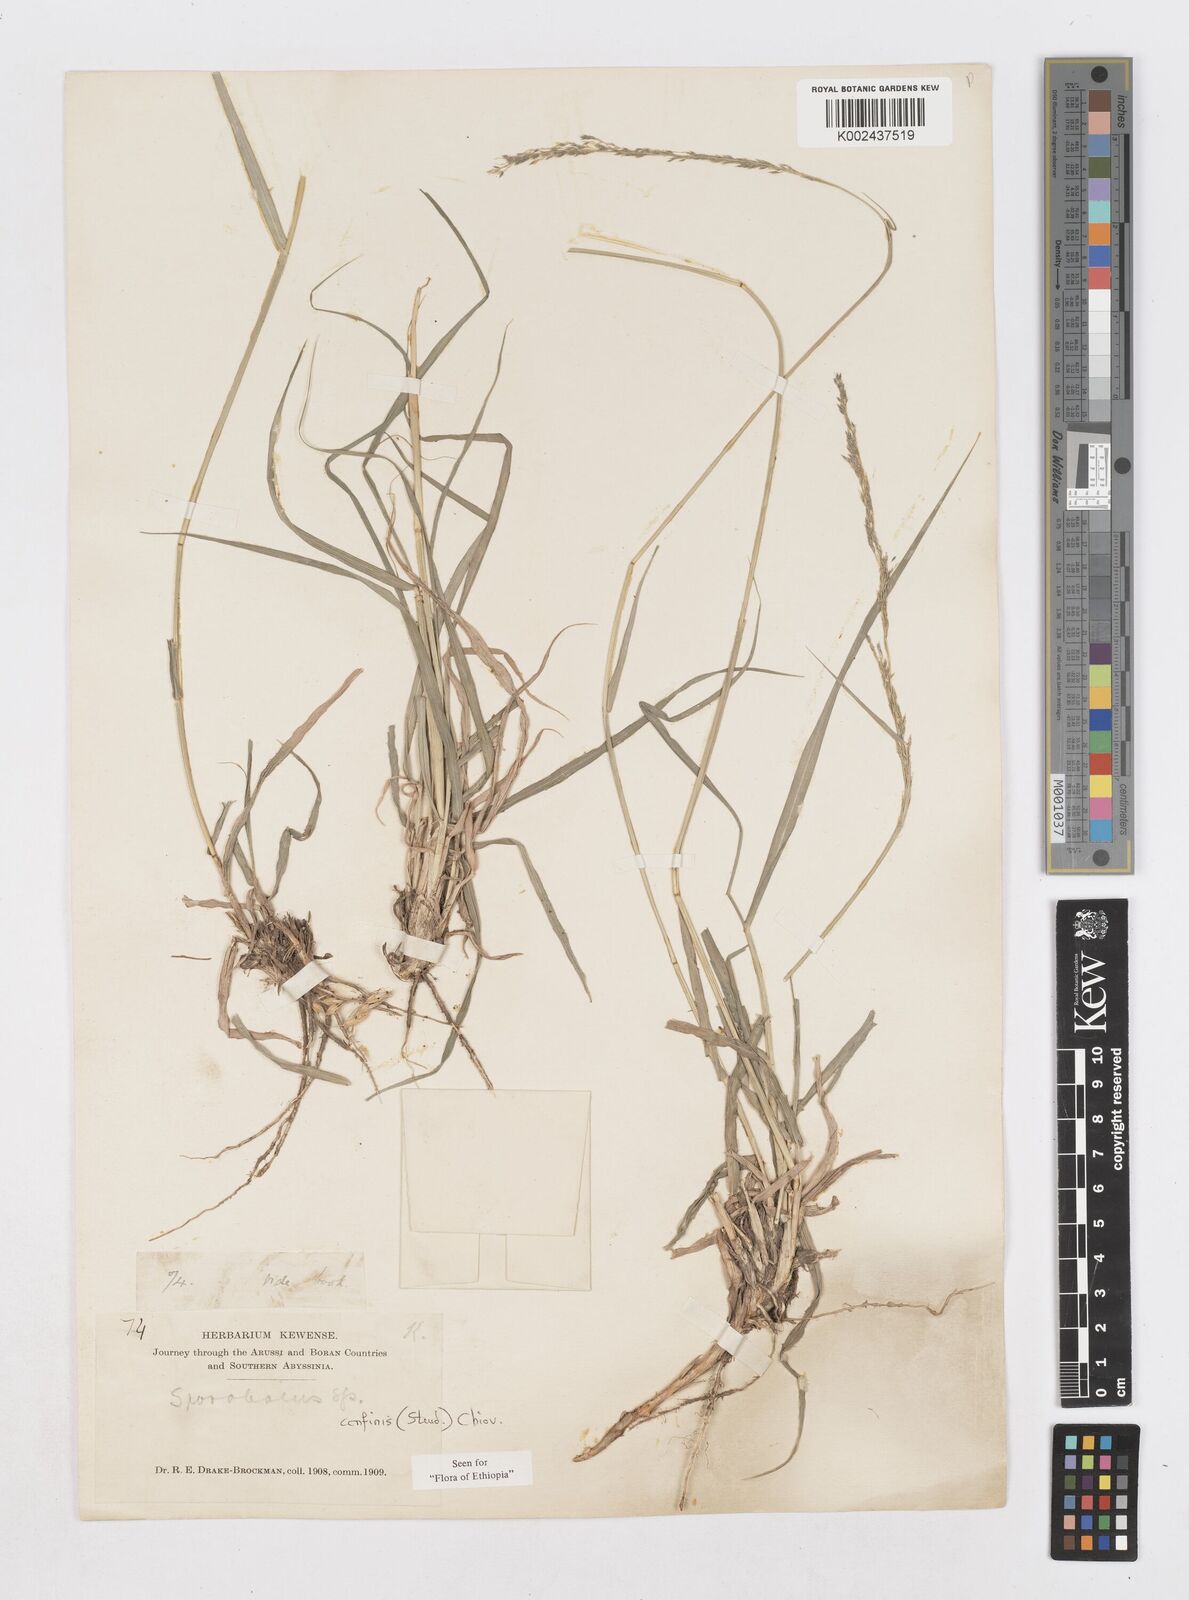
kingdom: Plantae
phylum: Tracheophyta
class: Liliopsida
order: Poales
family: Poaceae
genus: Sporobolus
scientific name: Sporobolus confinis
